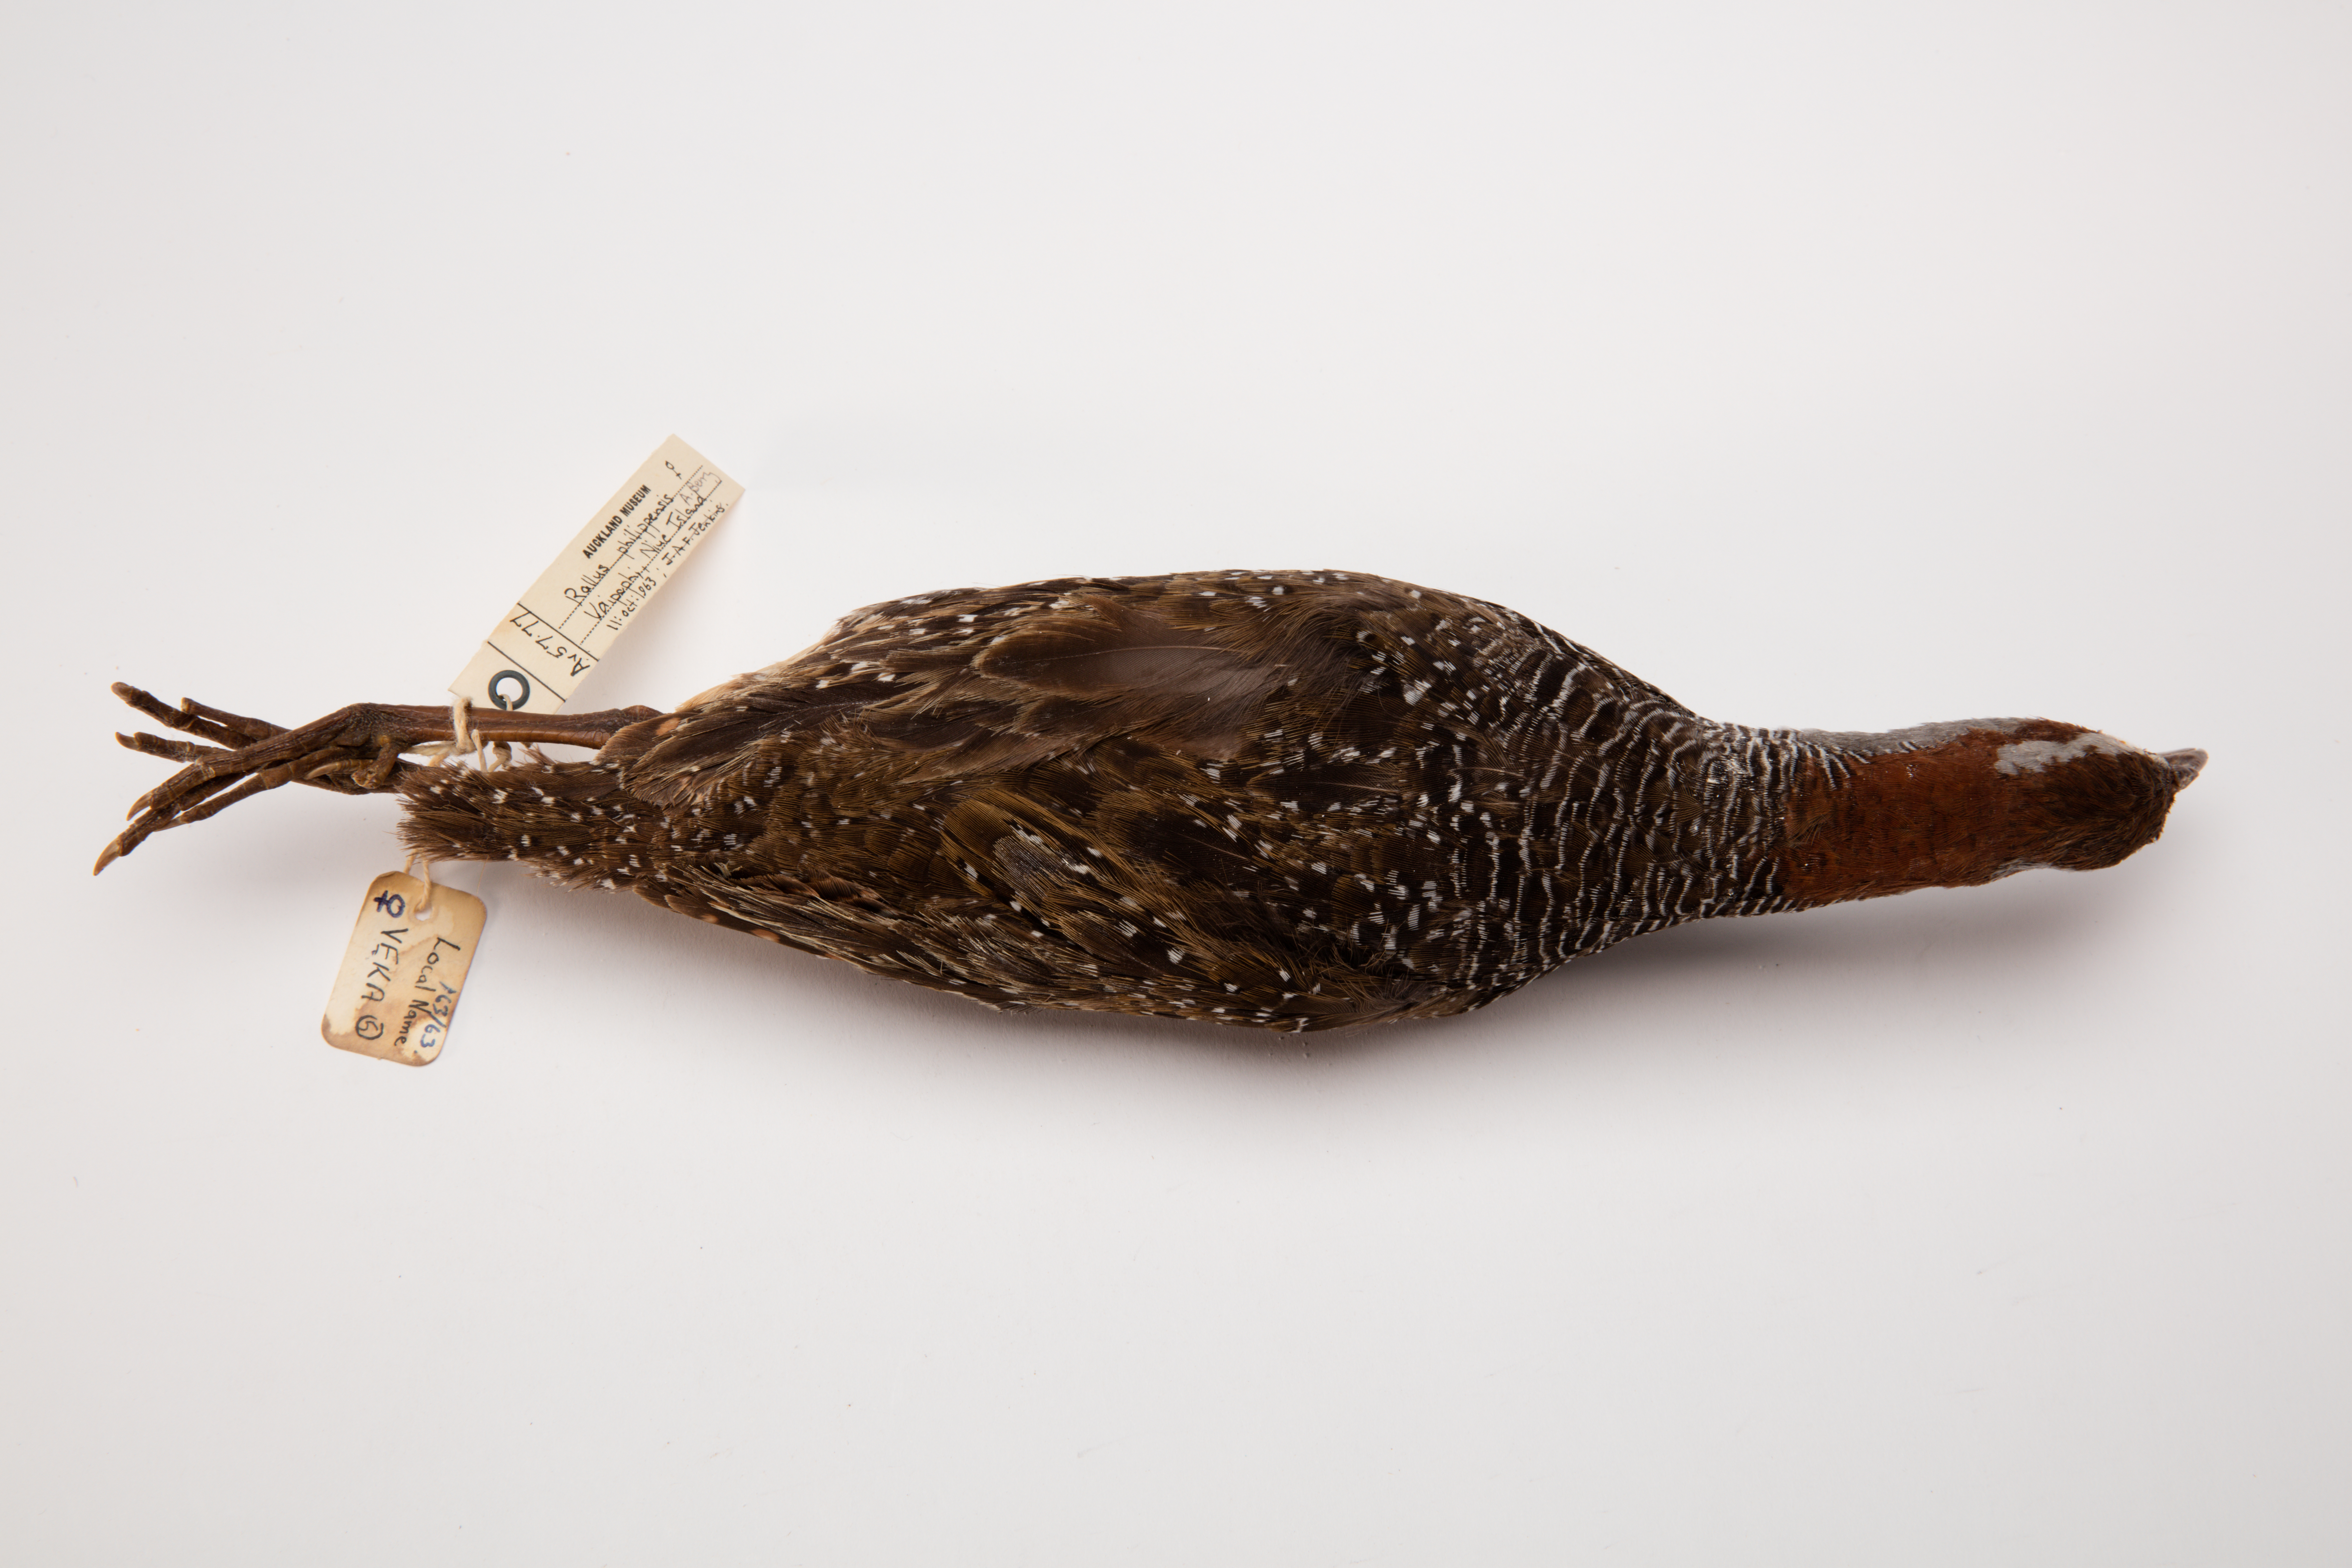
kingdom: Animalia
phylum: Chordata
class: Aves
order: Gruiformes
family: Rallidae
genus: Gallirallus
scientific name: Gallirallus philippensis
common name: Buff-banded rail
